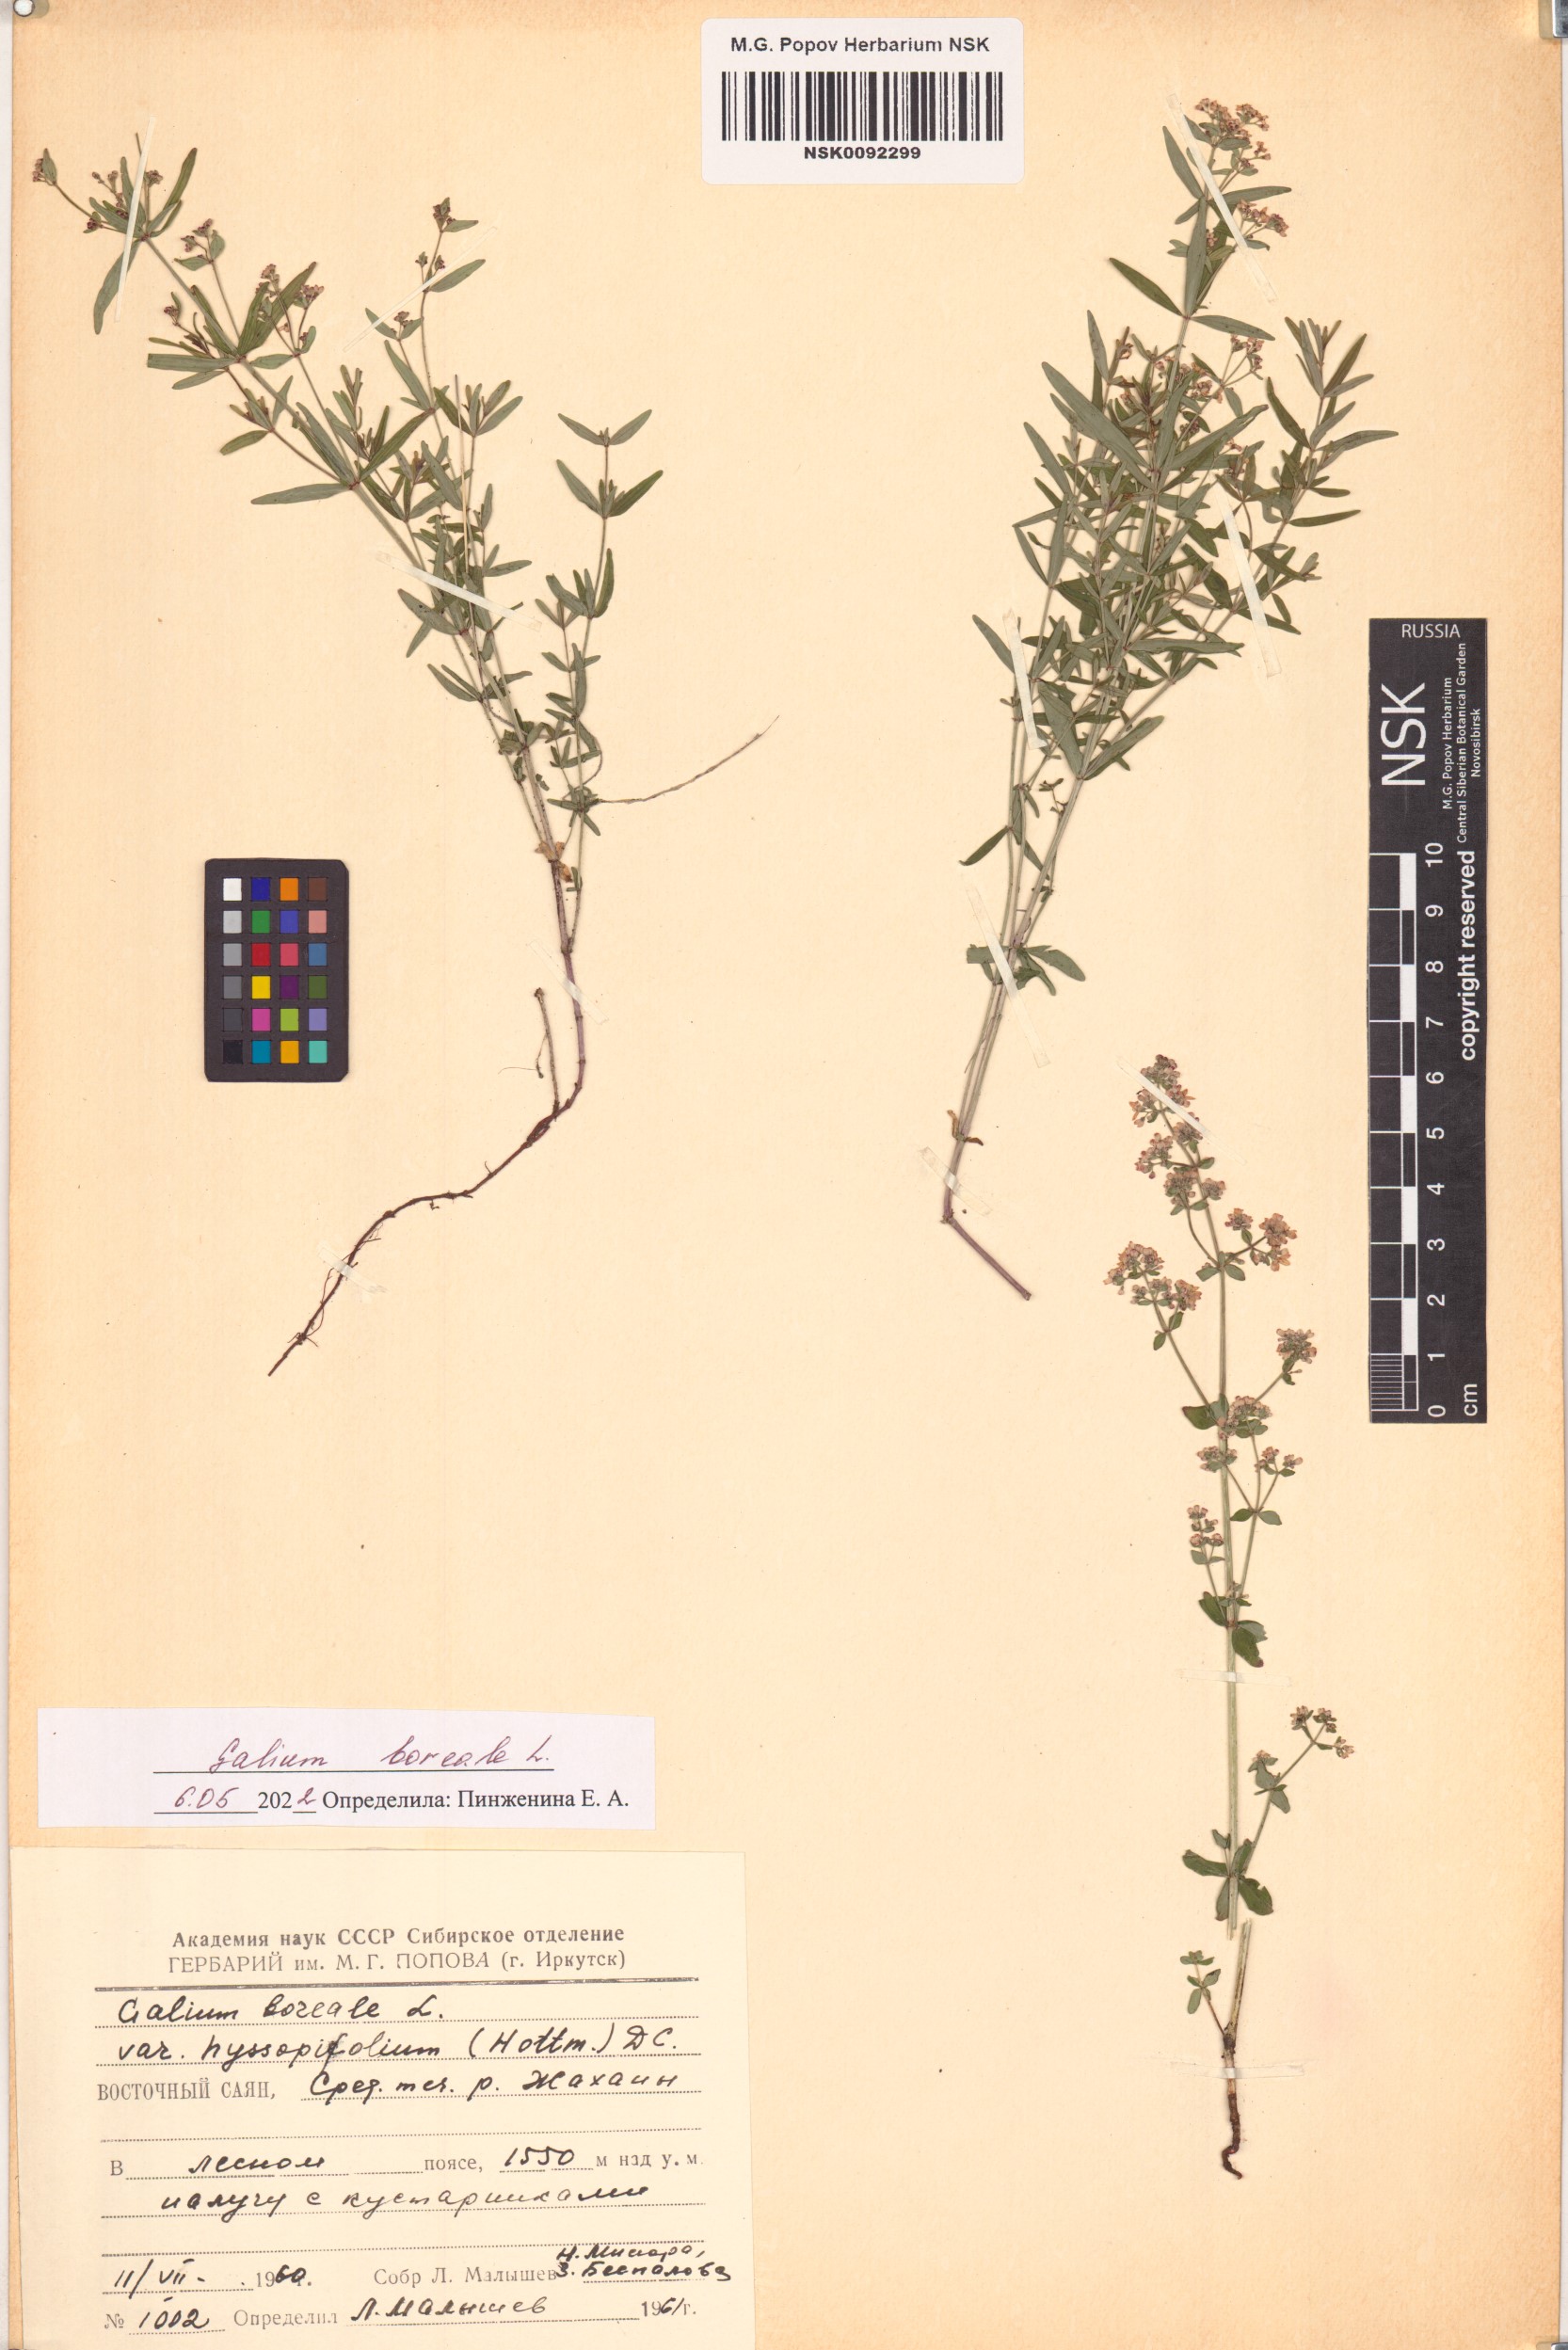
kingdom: Plantae
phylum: Tracheophyta
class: Magnoliopsida
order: Gentianales
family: Rubiaceae
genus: Galium
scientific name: Galium boreale
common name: Northern bedstraw
